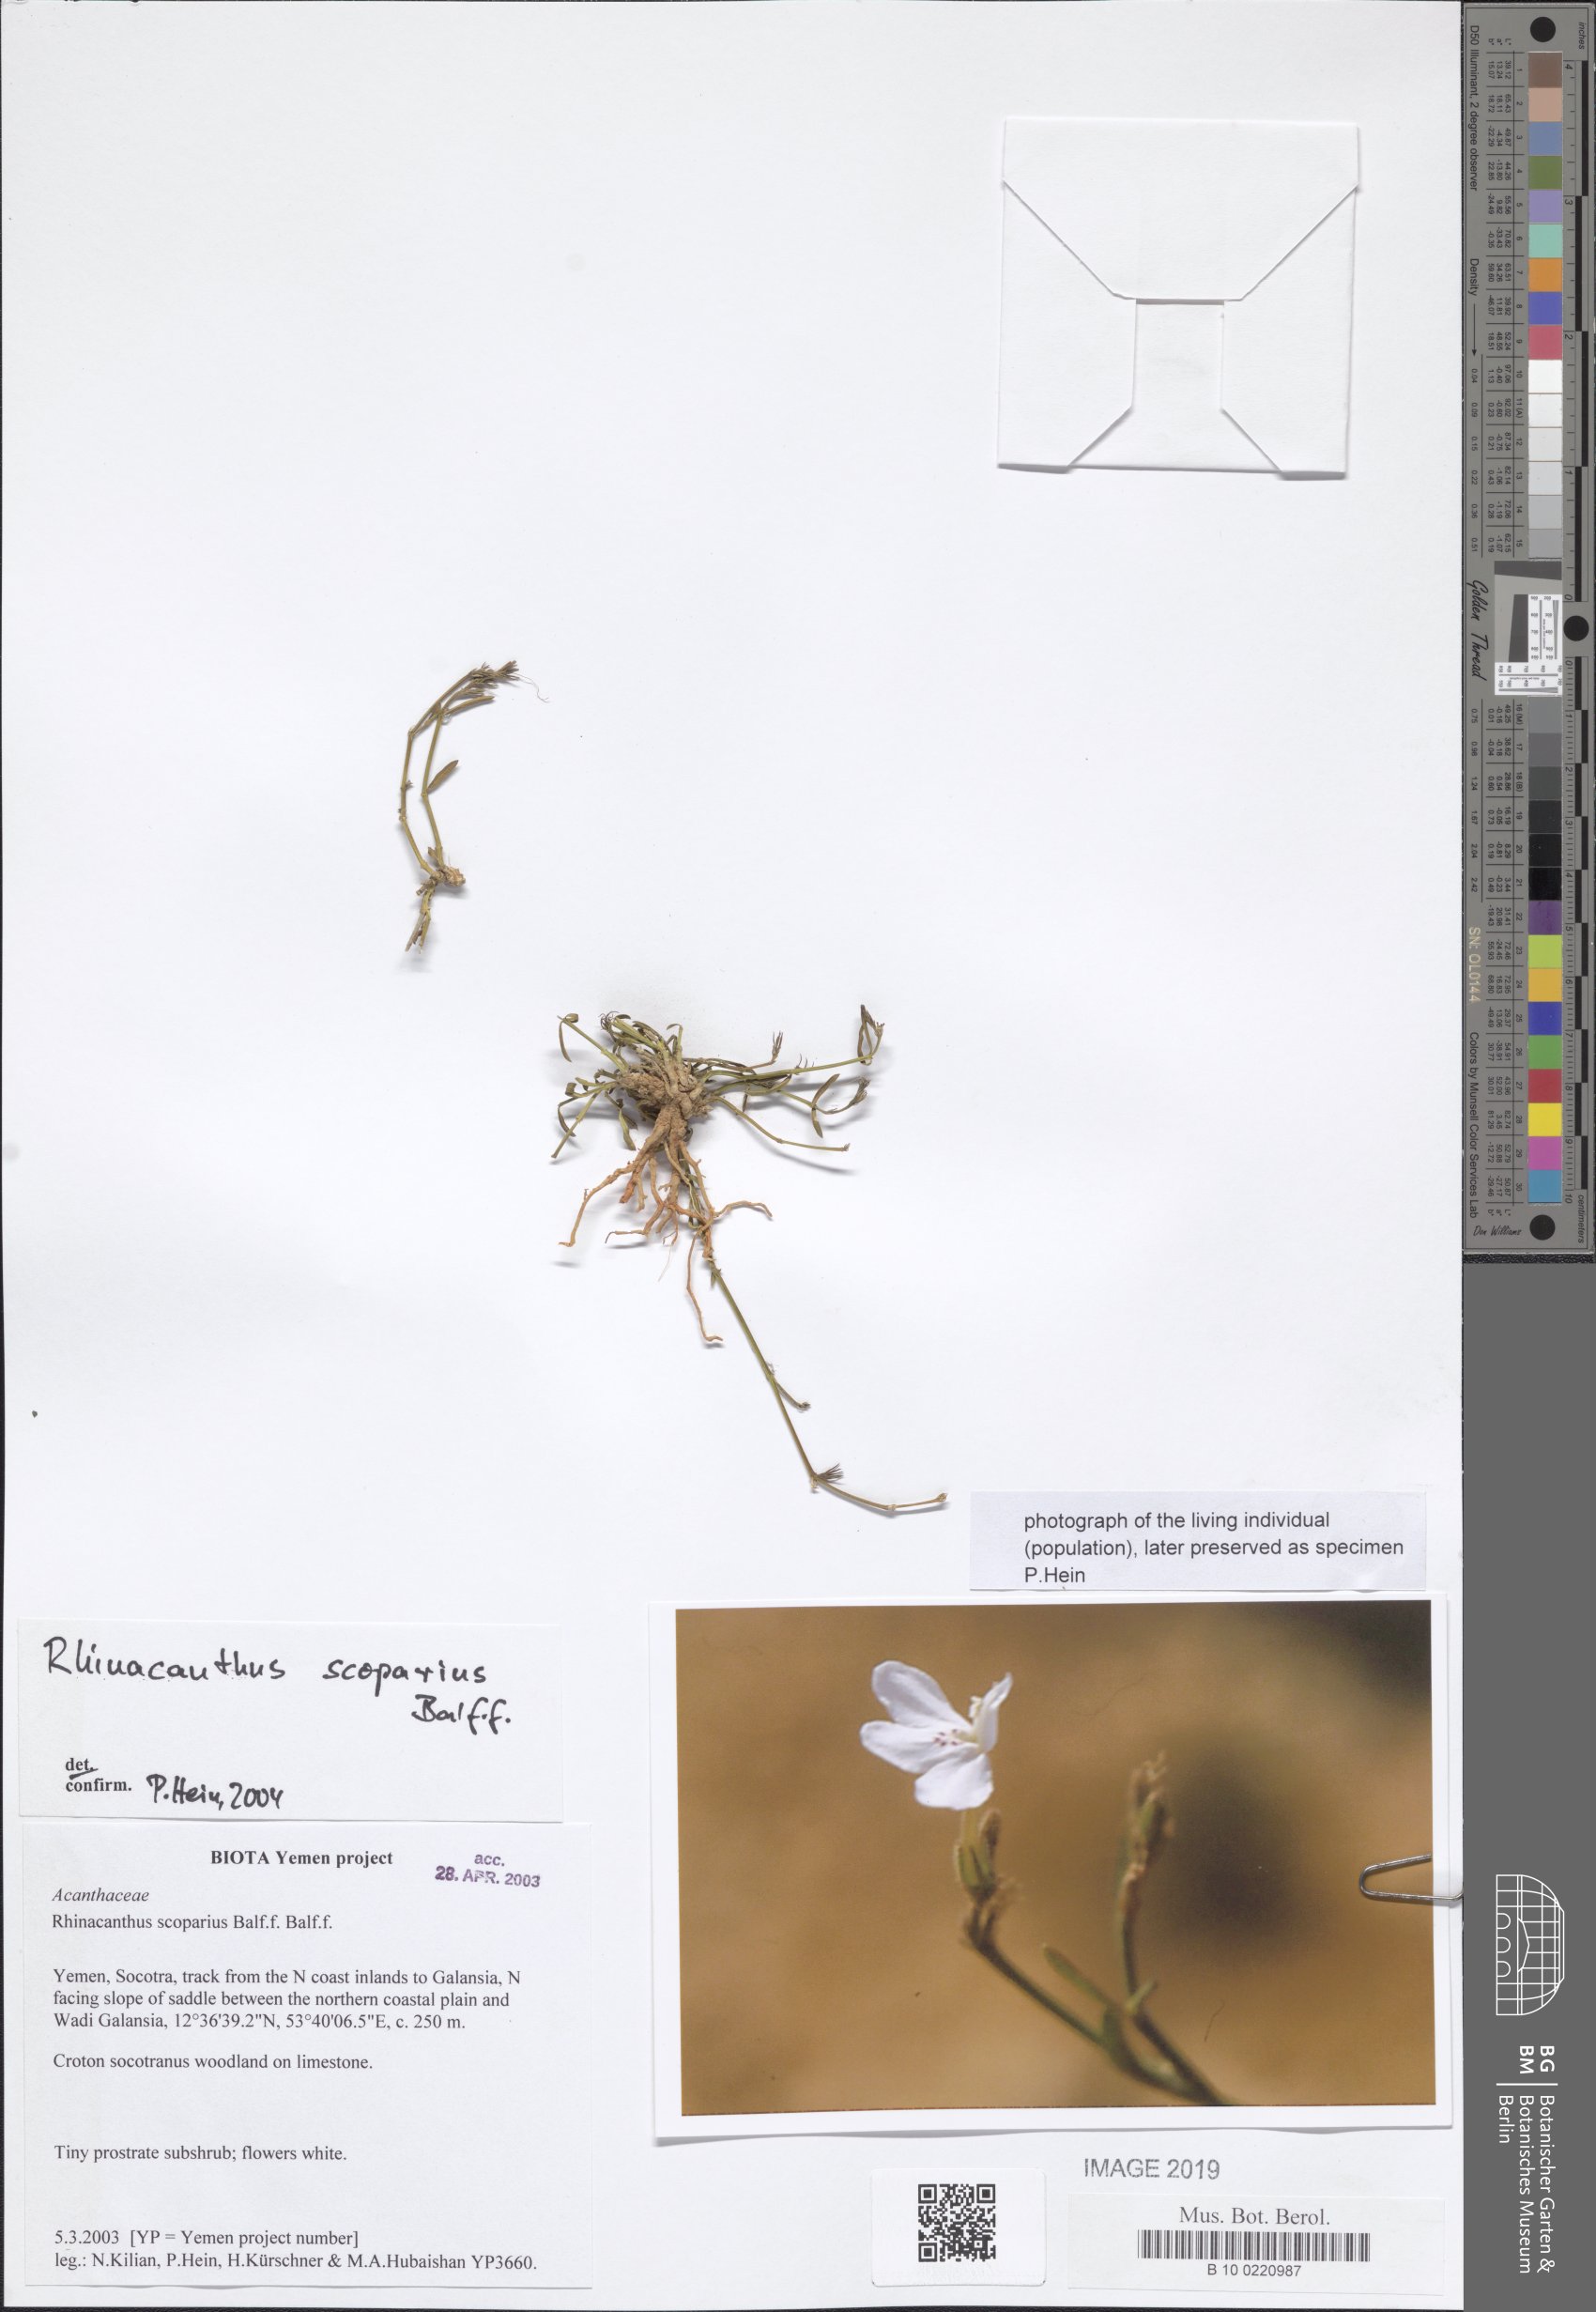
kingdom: Plantae
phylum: Tracheophyta
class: Magnoliopsida
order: Lamiales
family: Acanthaceae
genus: Rhinacanthus
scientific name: Rhinacanthus scoparius
